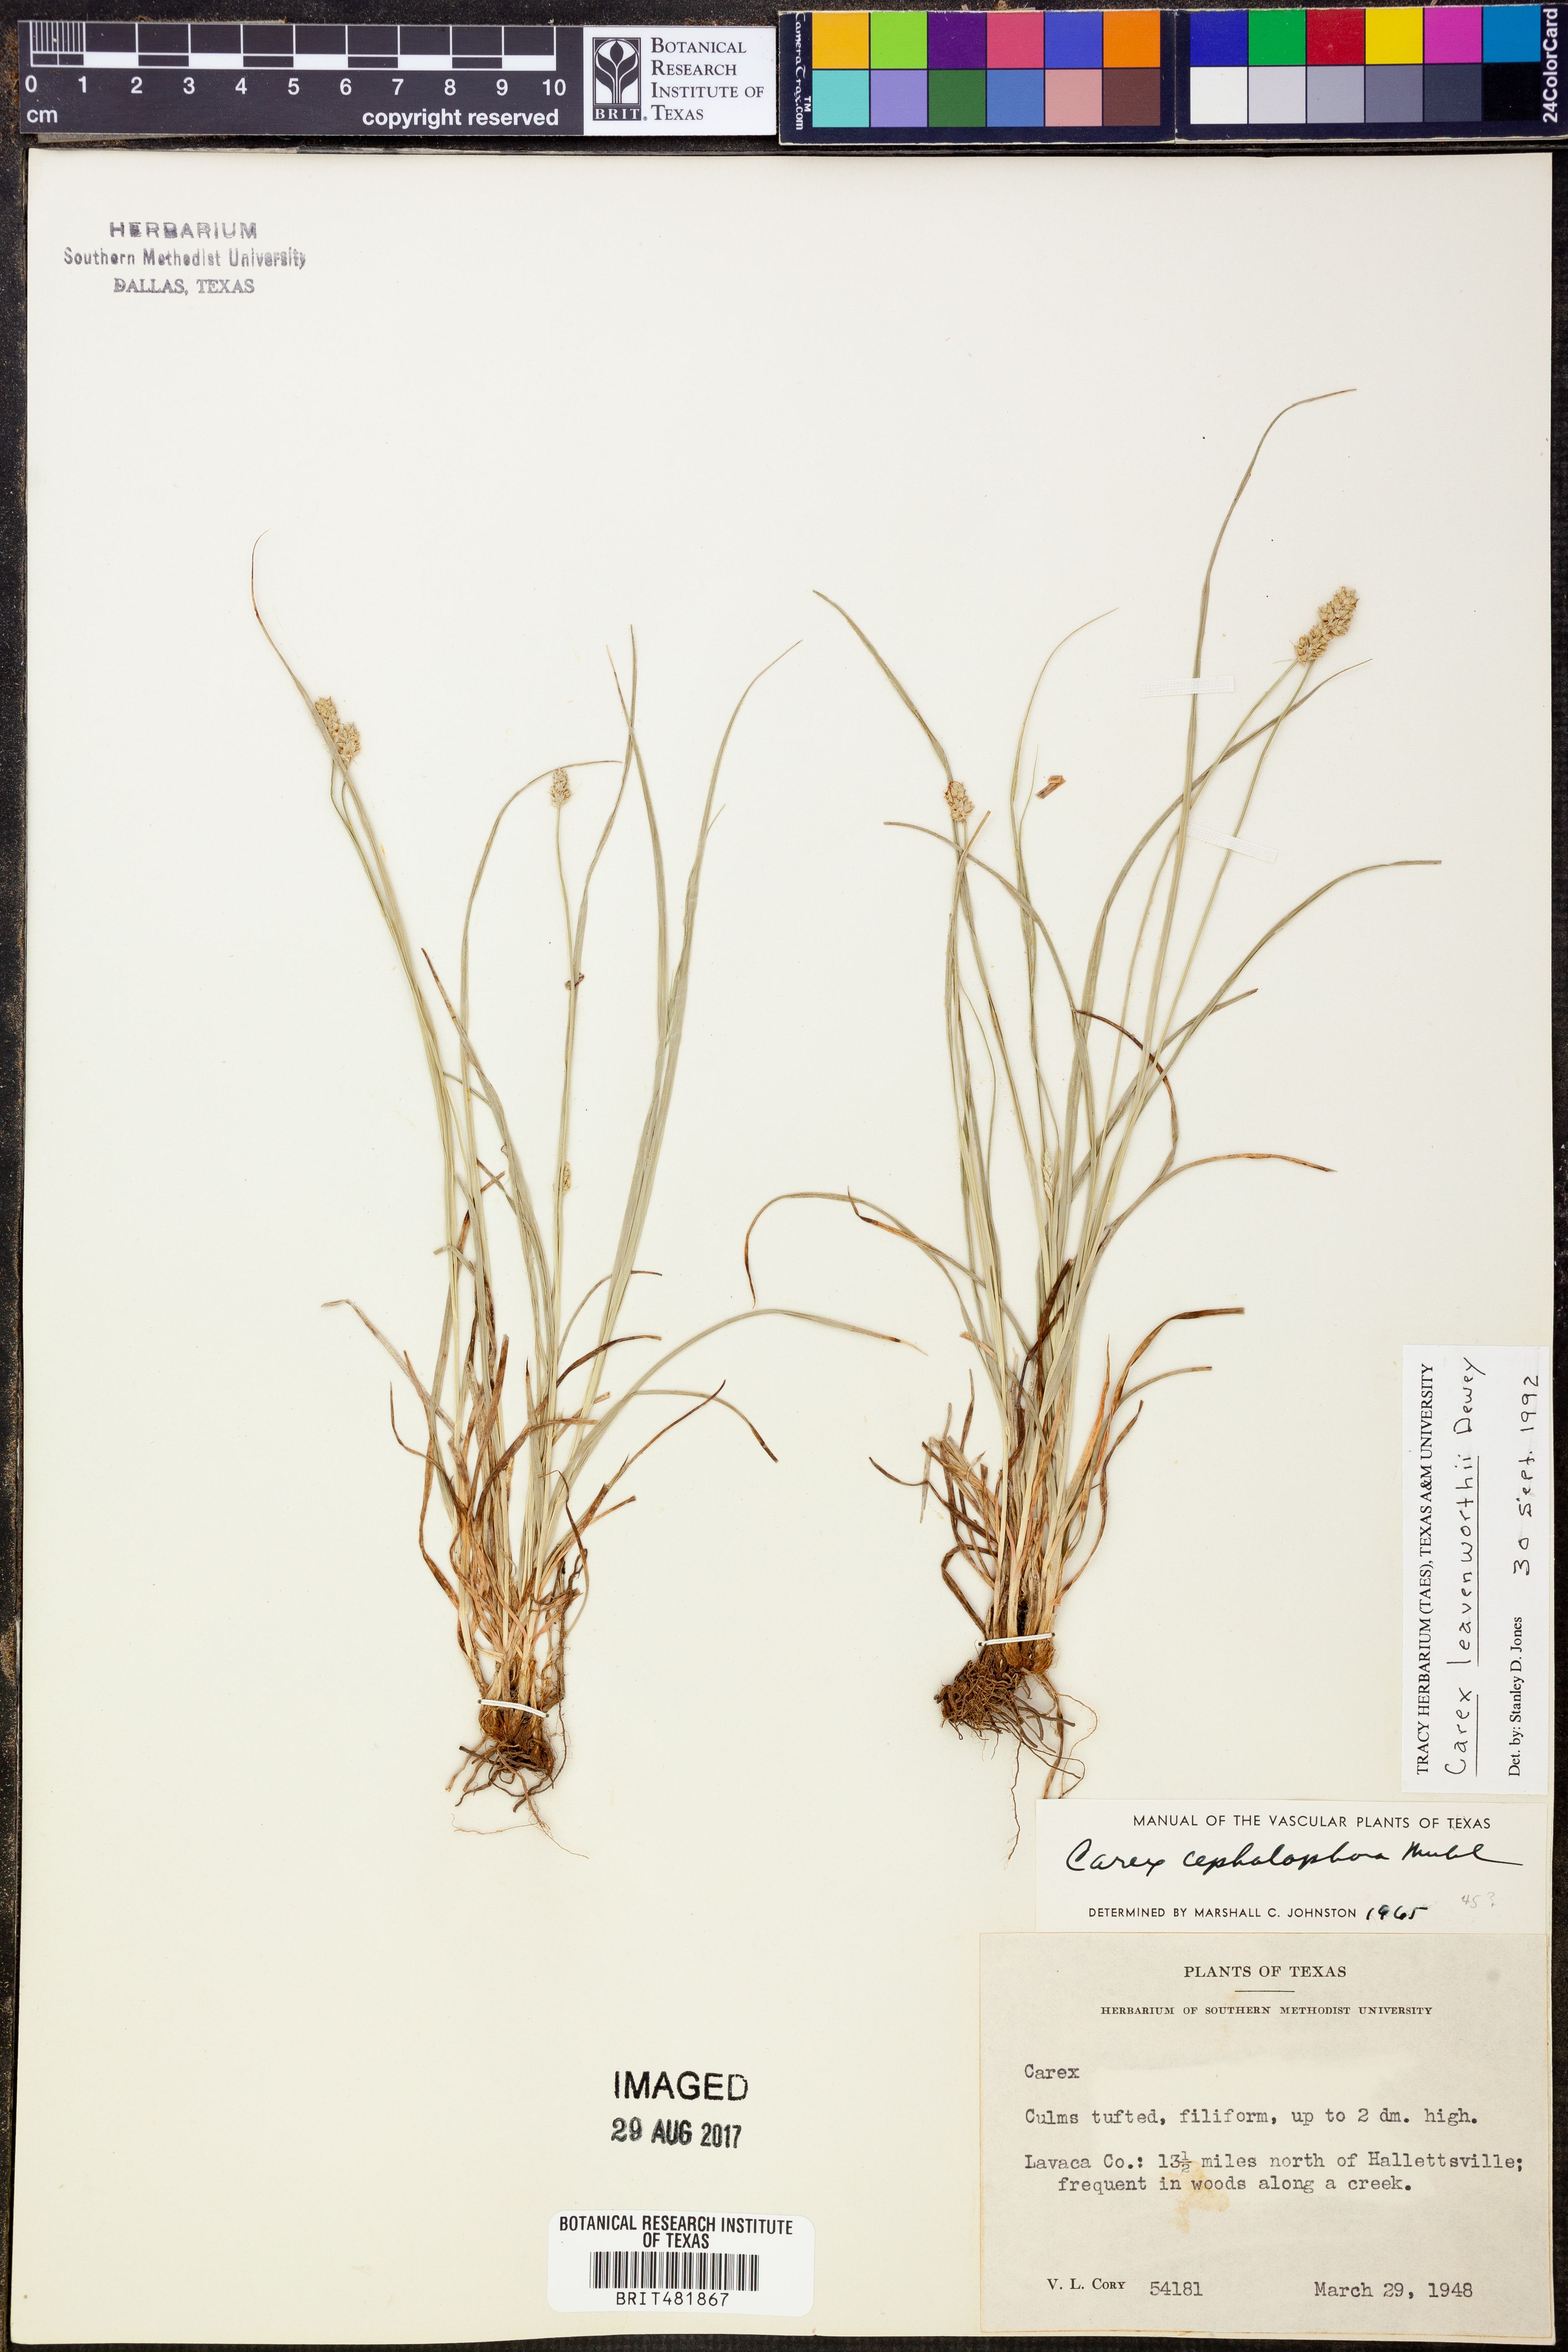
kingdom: Plantae
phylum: Tracheophyta
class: Liliopsida
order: Poales
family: Cyperaceae
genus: Carex
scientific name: Carex leavenworthii
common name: Leavenworth's bracted sedge
